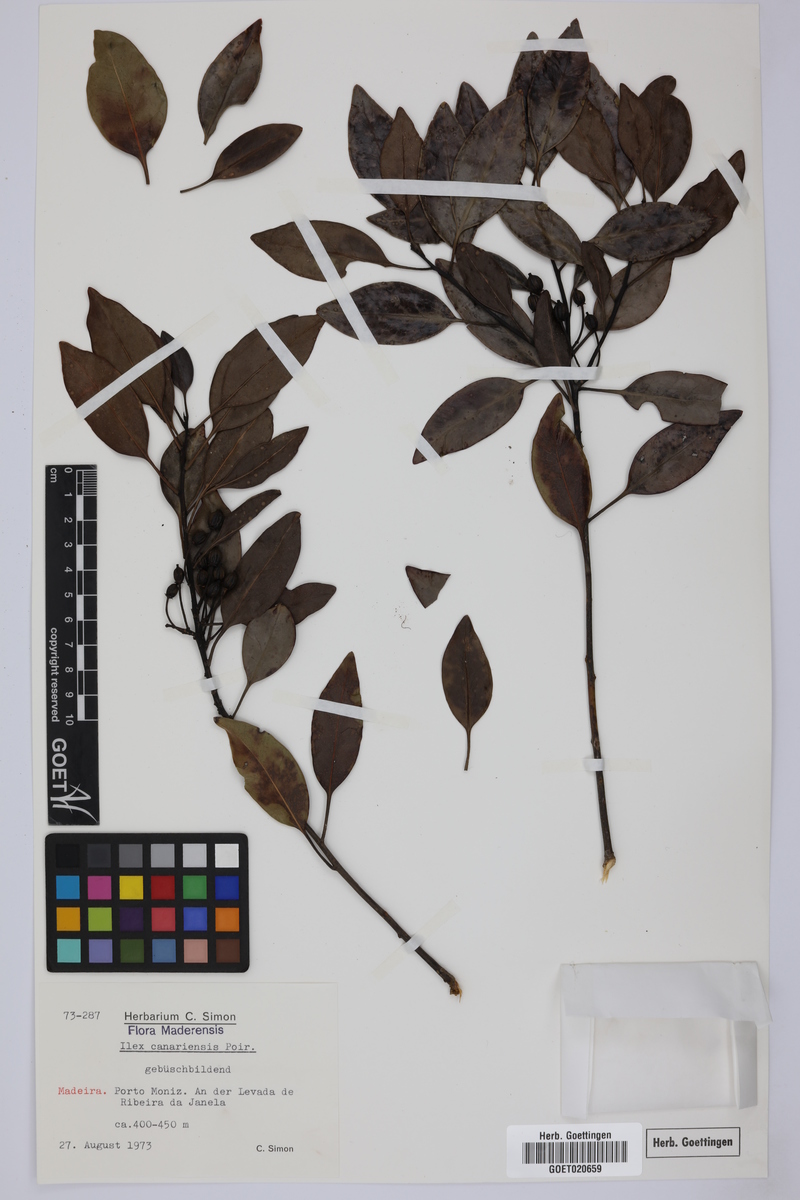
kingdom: Plantae
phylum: Tracheophyta
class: Magnoliopsida
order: Aquifoliales
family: Aquifoliaceae
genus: Ilex
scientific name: Ilex canariensis
